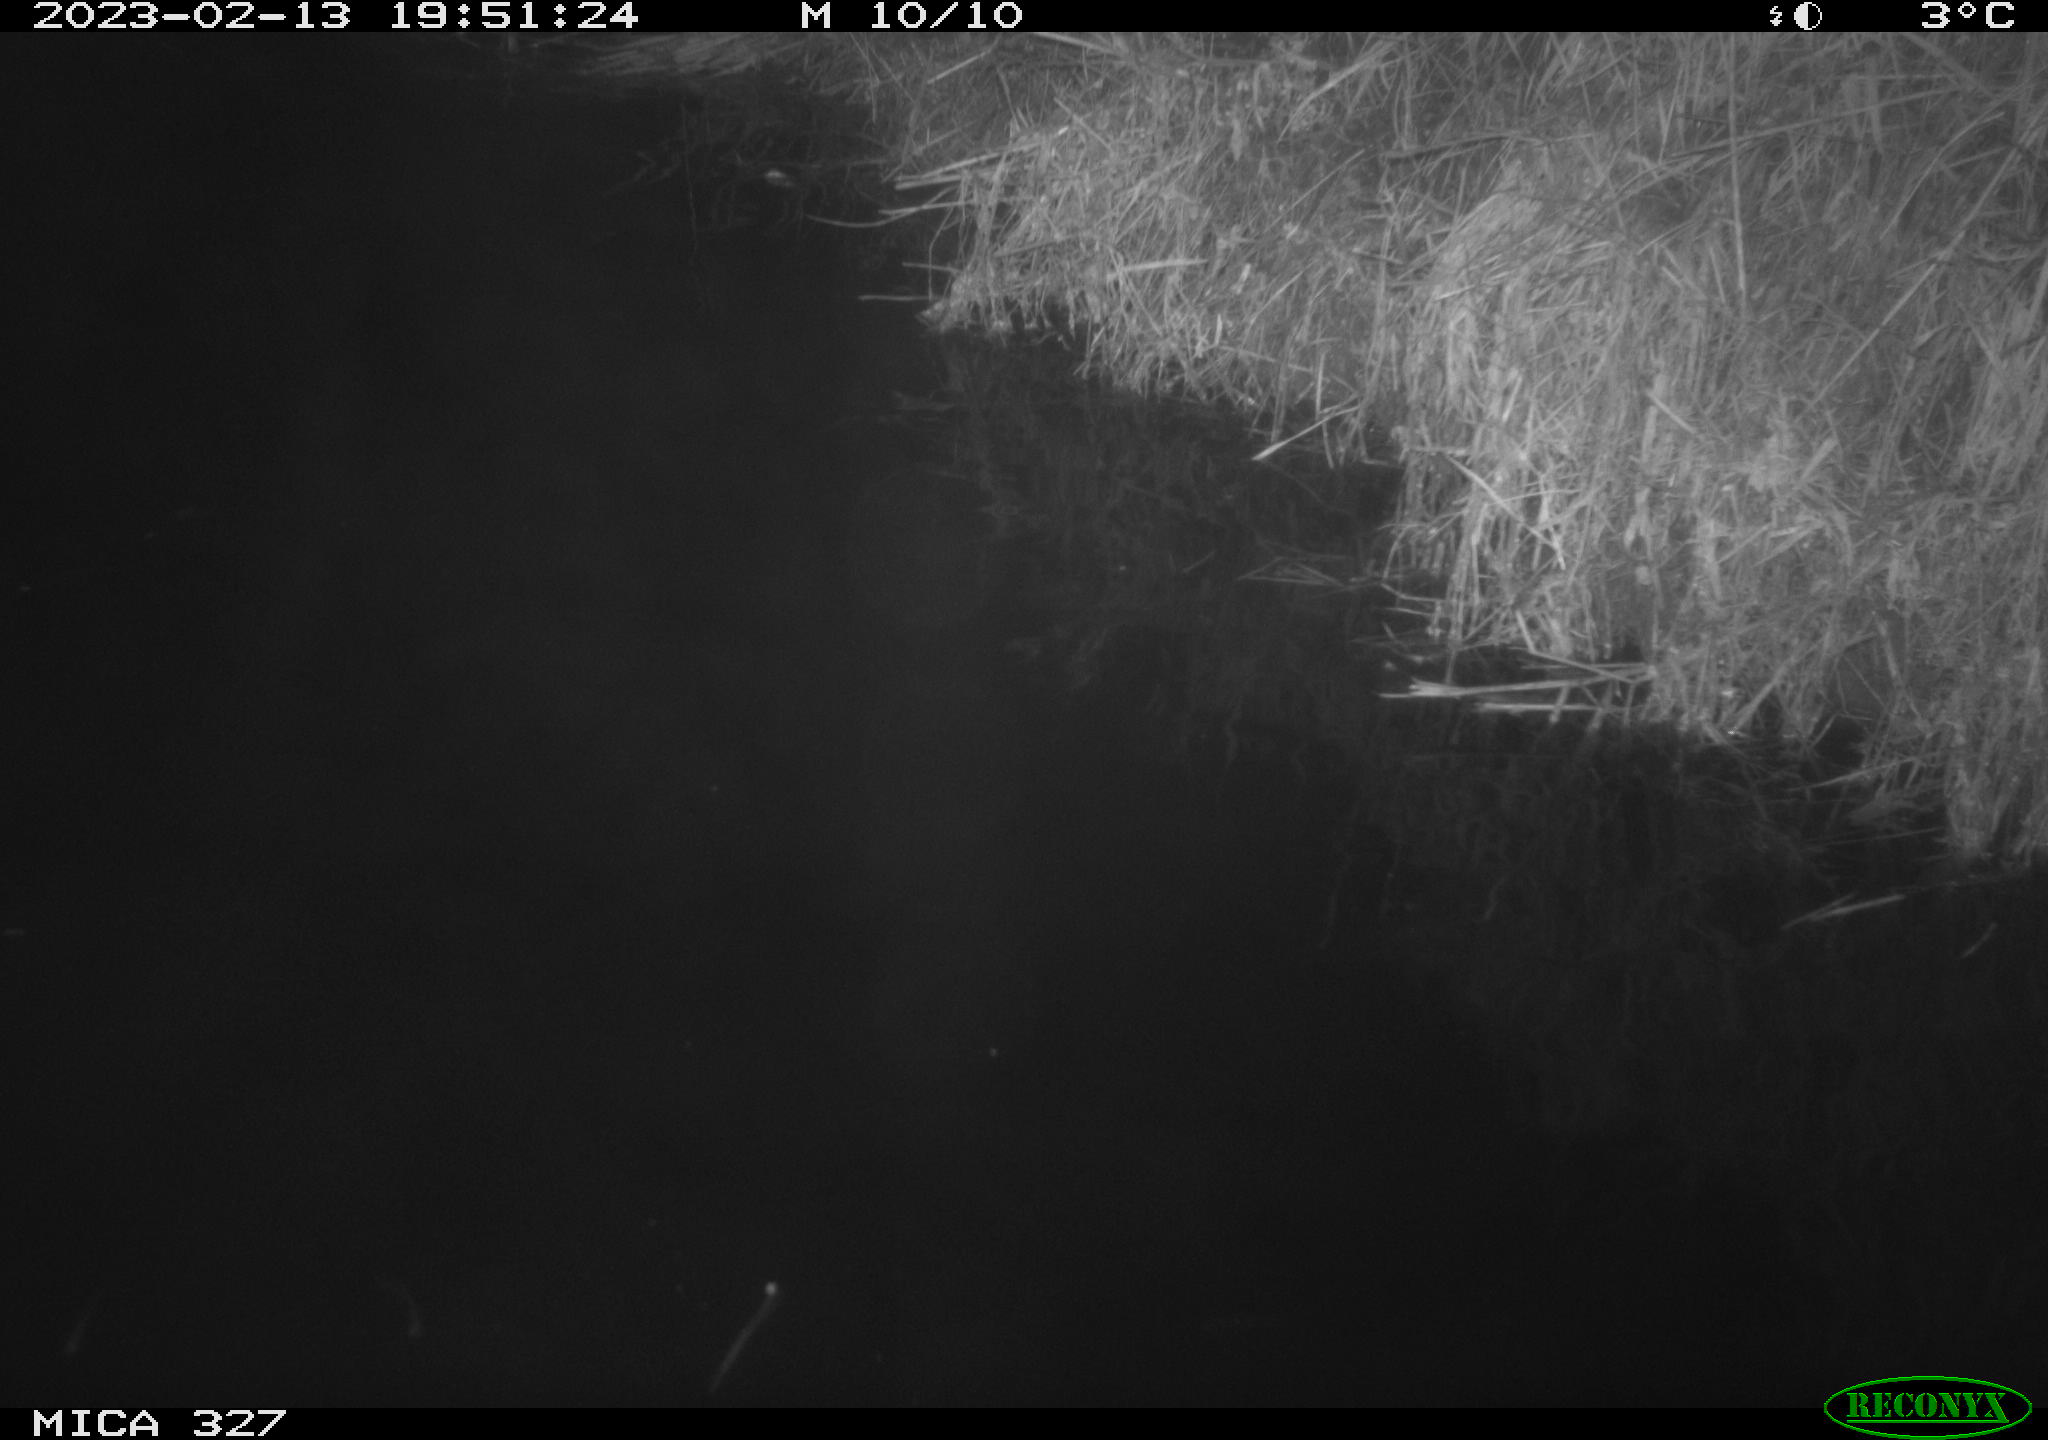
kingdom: Animalia
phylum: Chordata
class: Mammalia
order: Rodentia
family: Cricetidae
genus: Ondatra
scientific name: Ondatra zibethicus
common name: Muskrat
